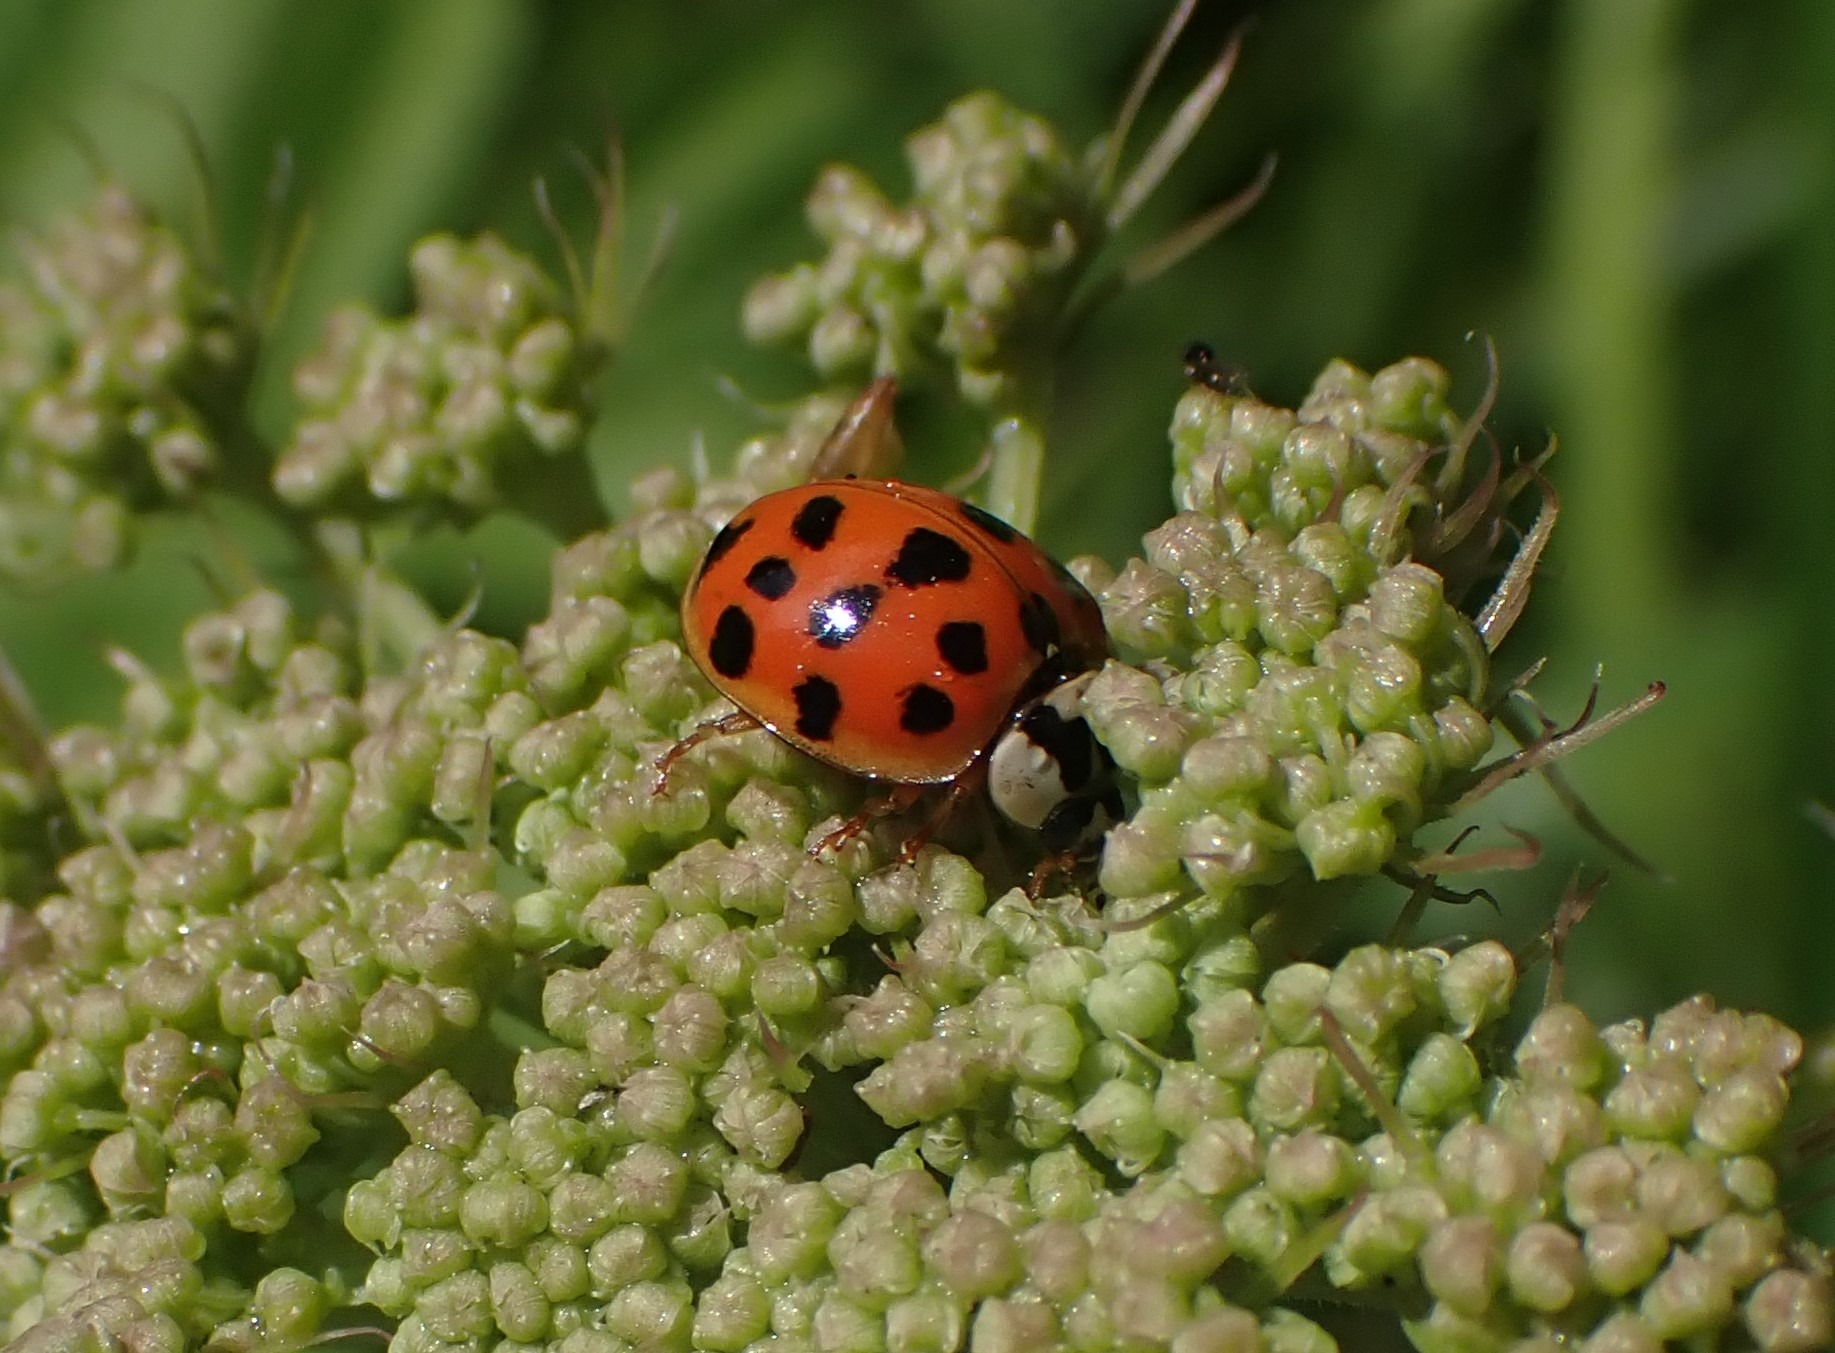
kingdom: Animalia
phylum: Arthropoda
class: Insecta
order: Coleoptera
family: Coccinellidae
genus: Harmonia
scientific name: Harmonia axyridis
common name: Harlekinmariehøne
